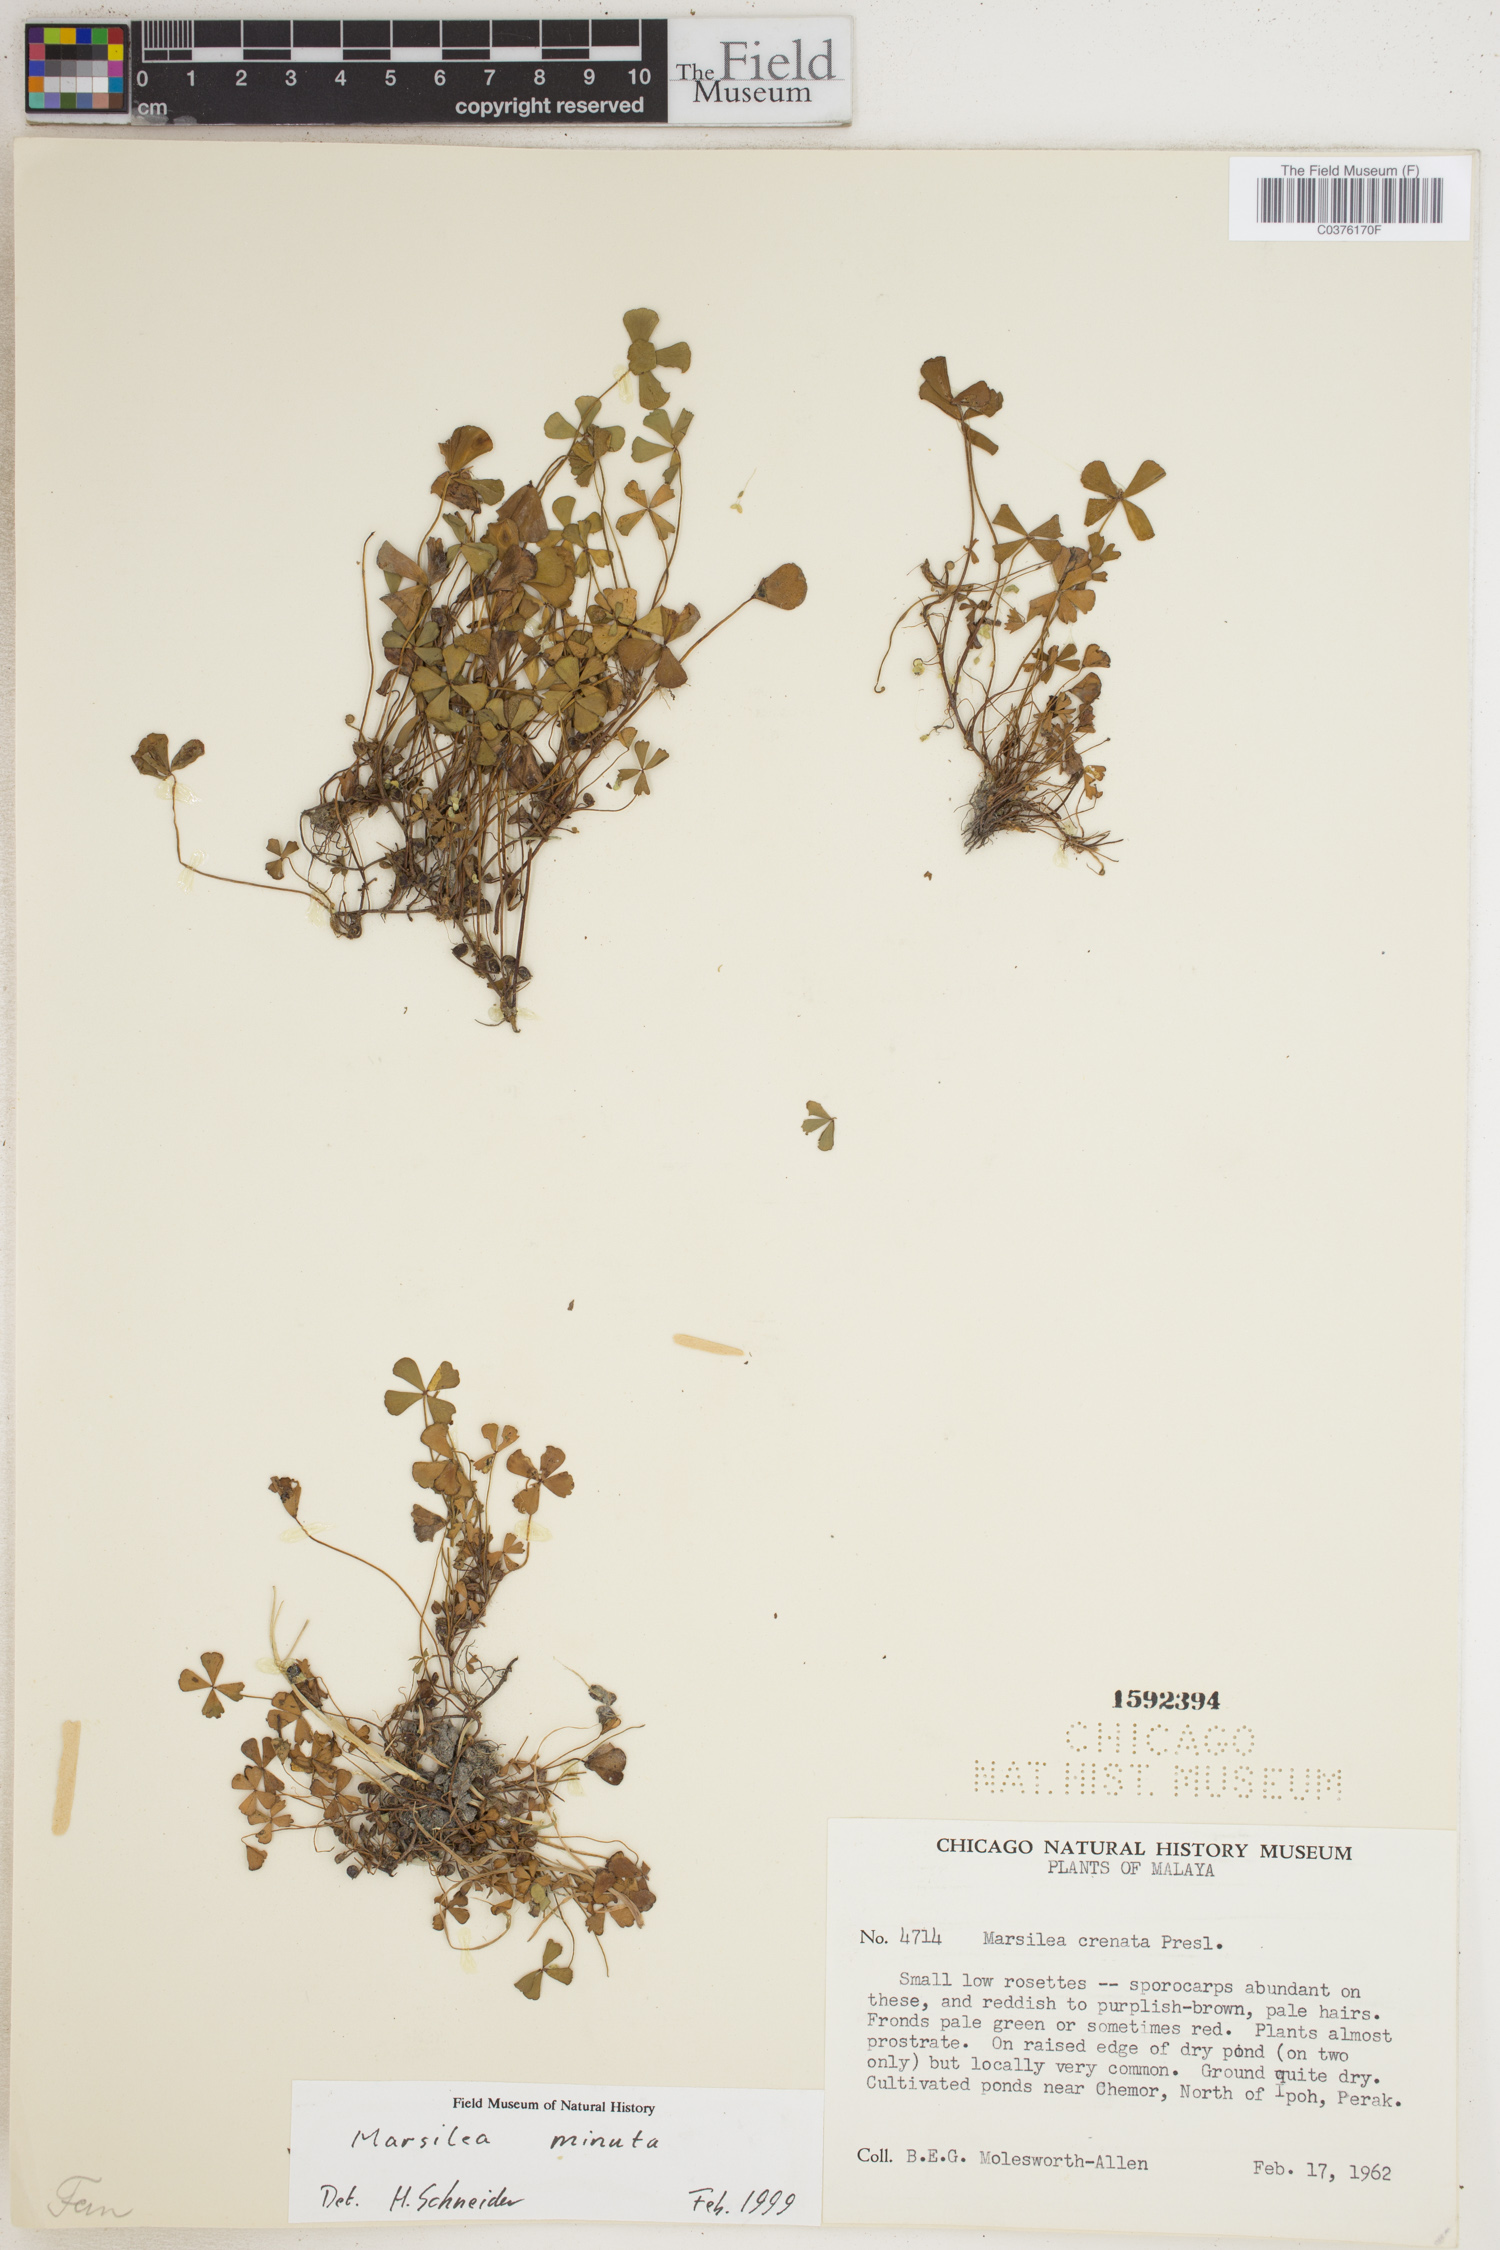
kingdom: Plantae
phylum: Tracheophyta
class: Polypodiopsida
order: Salviniales
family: Marsileaceae
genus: Marsilea
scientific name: Marsilea minuta
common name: Dwarf waterclover
